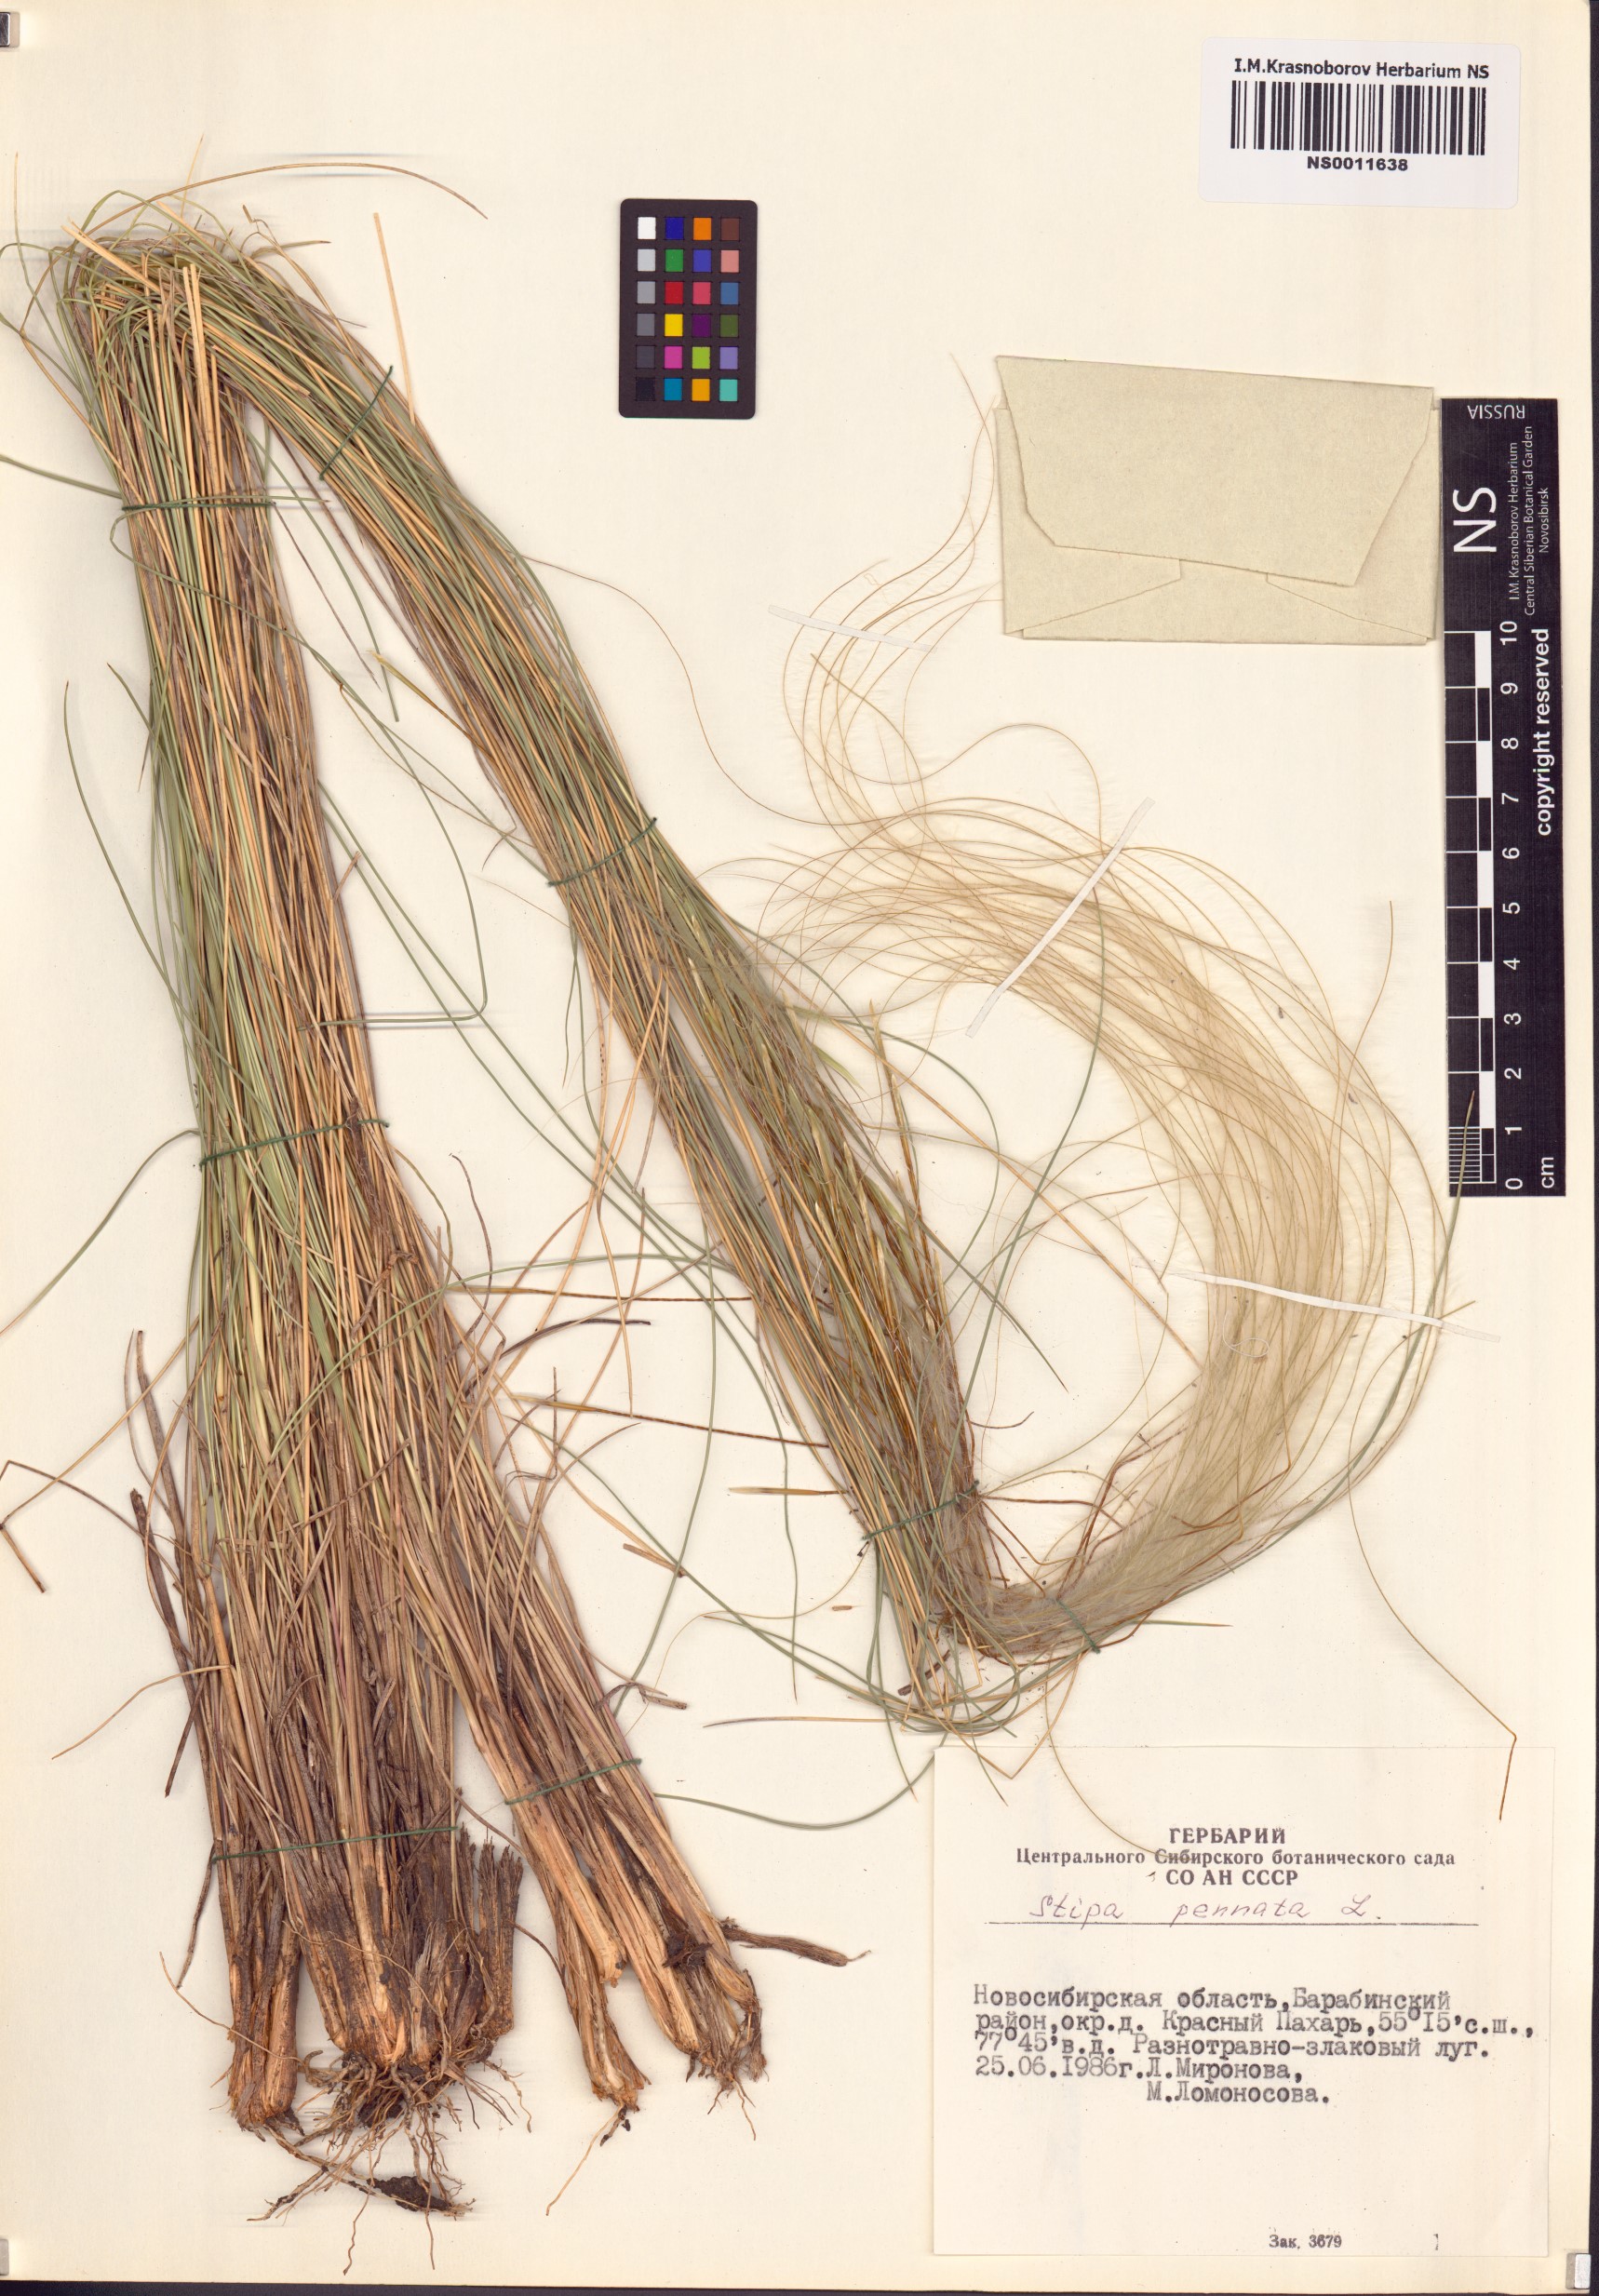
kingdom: Plantae
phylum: Tracheophyta
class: Liliopsida
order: Poales
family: Poaceae
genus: Stipa
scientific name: Stipa pennata
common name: European feather grass
